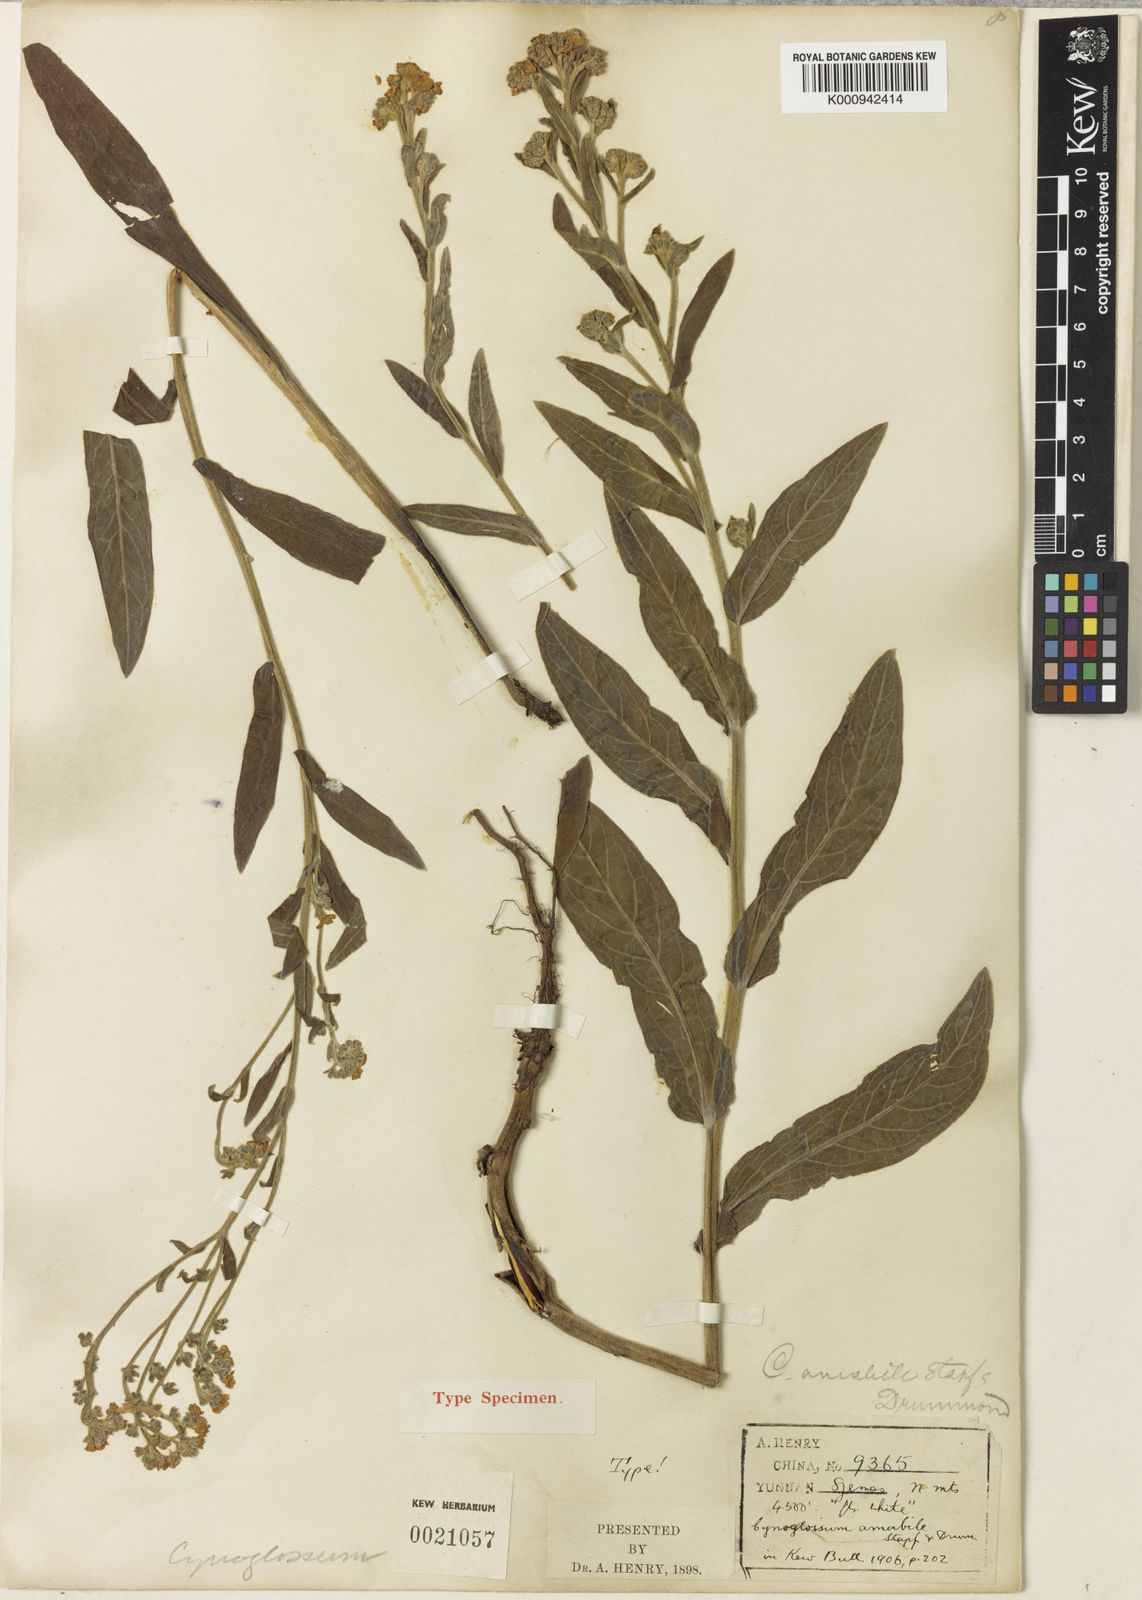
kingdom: Plantae
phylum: Tracheophyta
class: Magnoliopsida
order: Boraginales
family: Boraginaceae
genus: Cynoglossum
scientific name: Cynoglossum amabile
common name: Chinese hound's tongue
